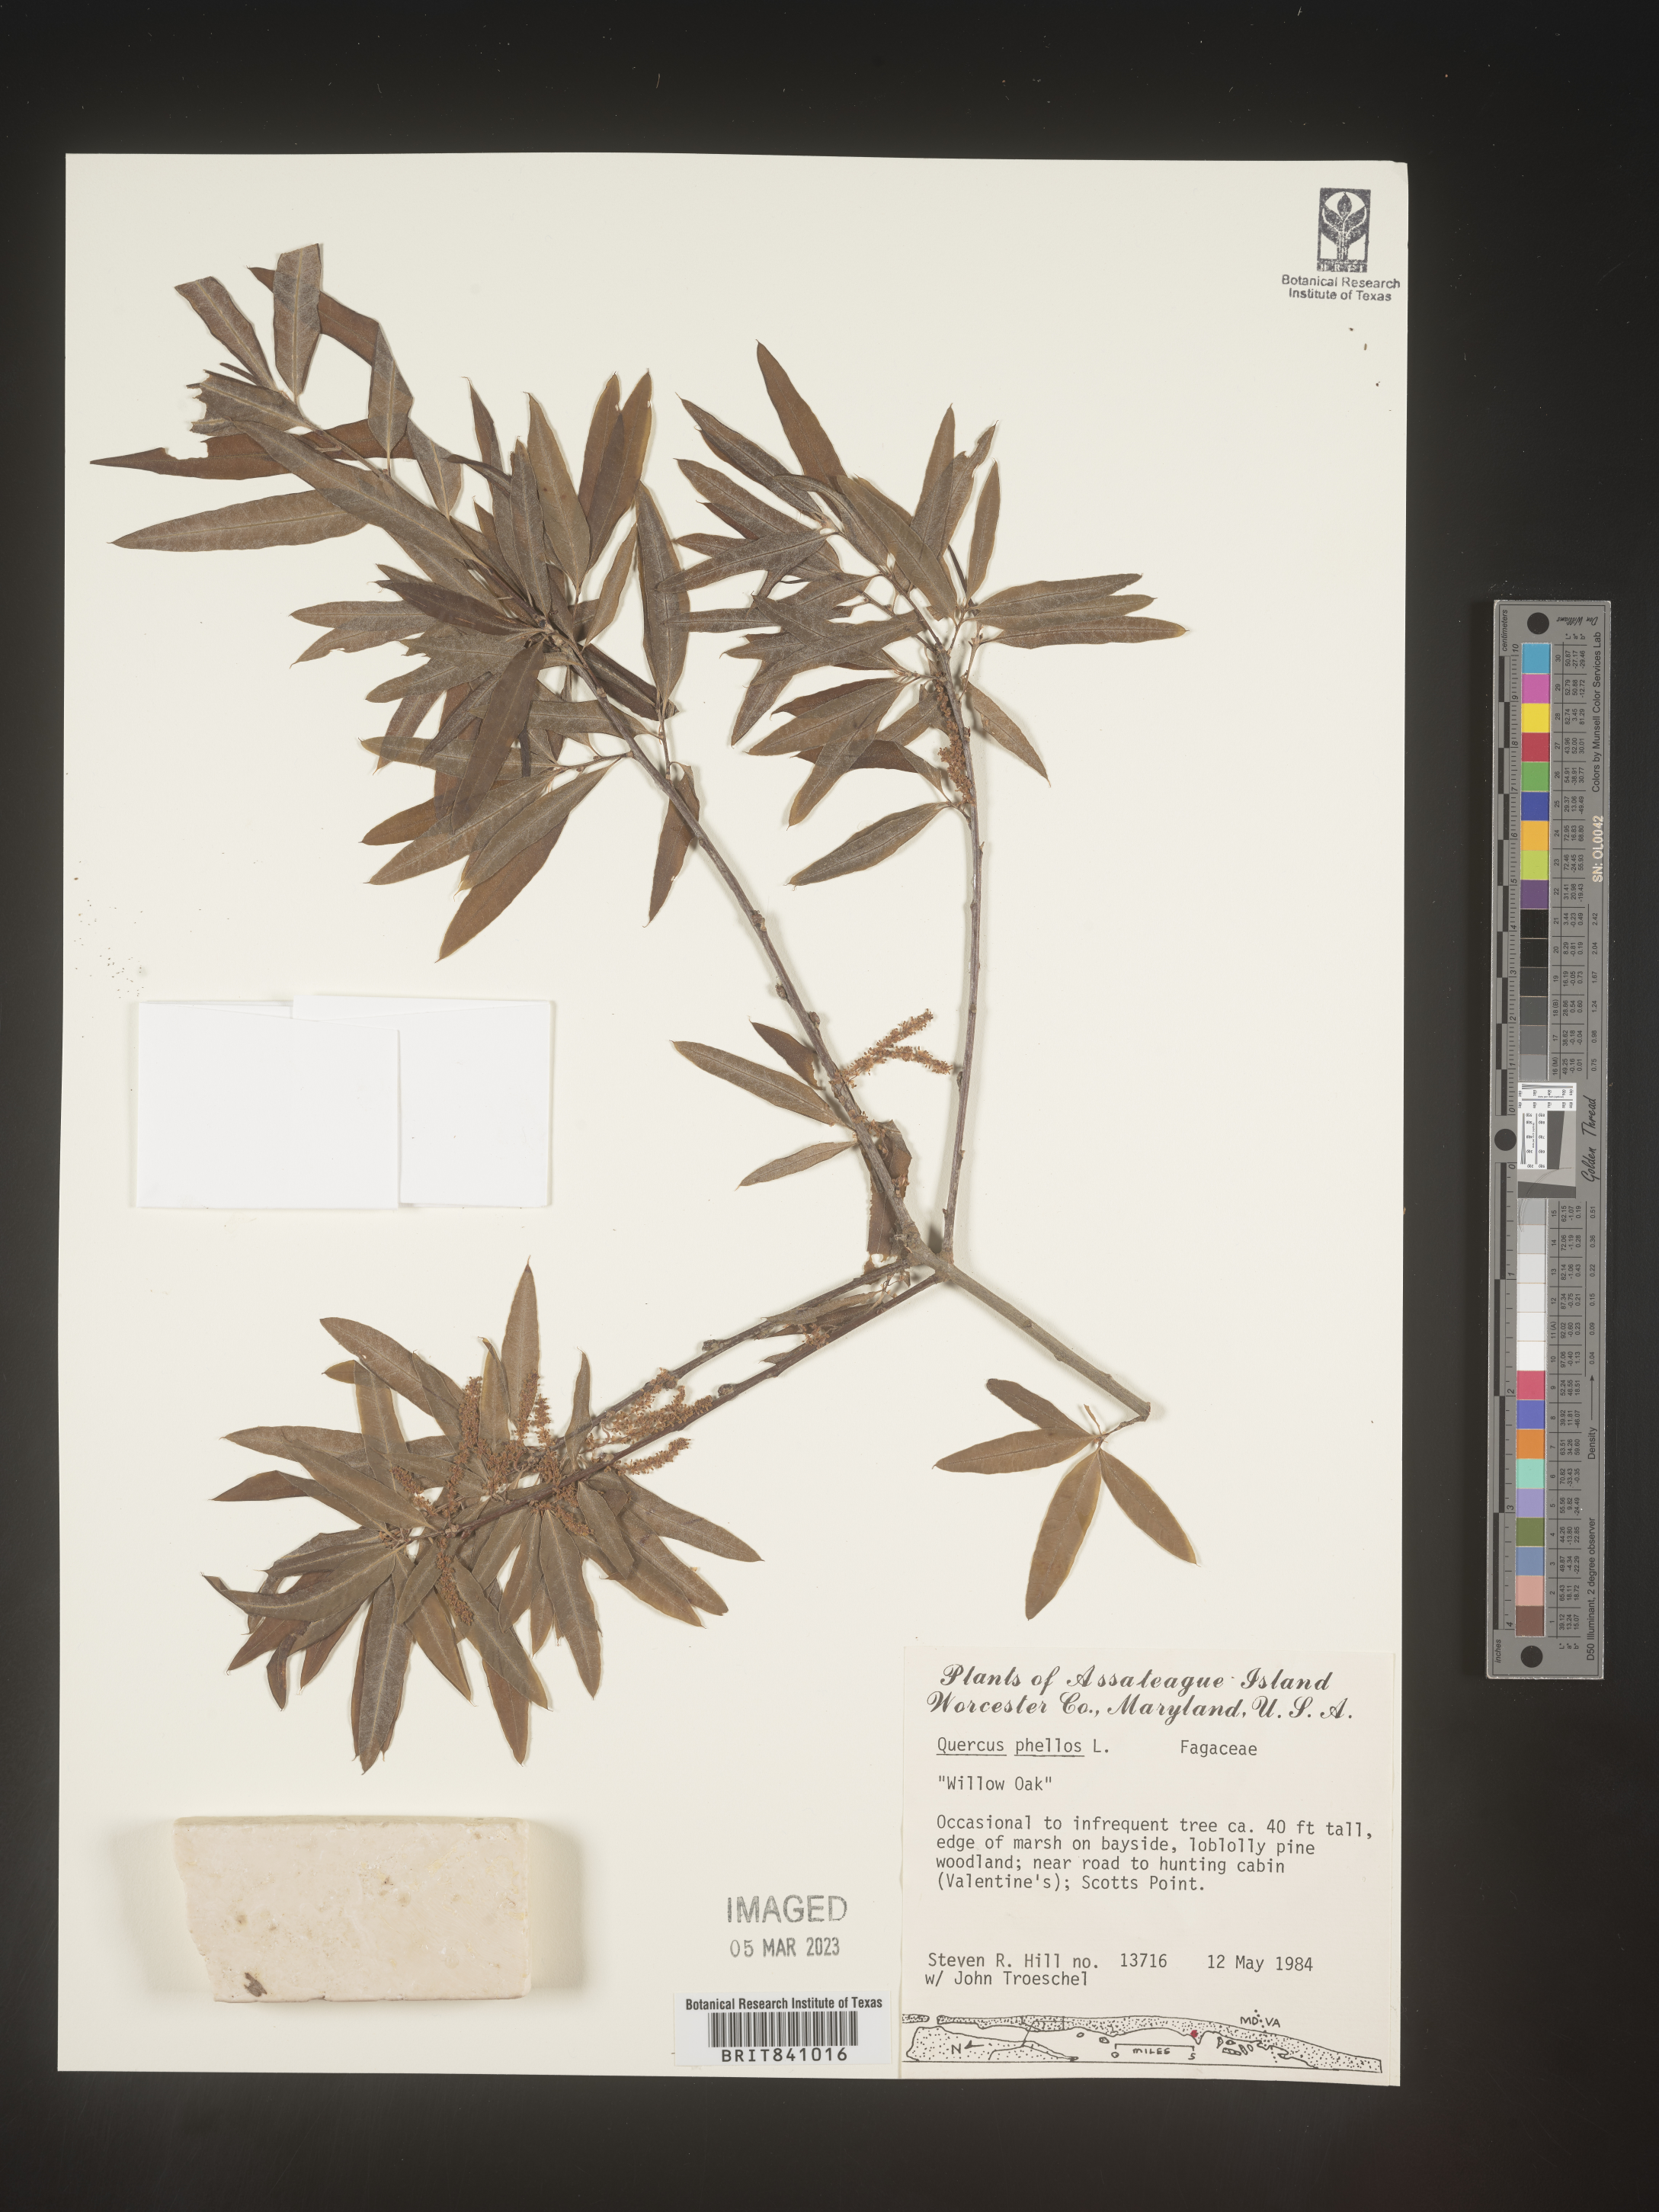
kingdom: Plantae
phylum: Tracheophyta
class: Magnoliopsida
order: Fagales
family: Fagaceae
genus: Quercus
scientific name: Quercus phellos
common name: Willow oak
